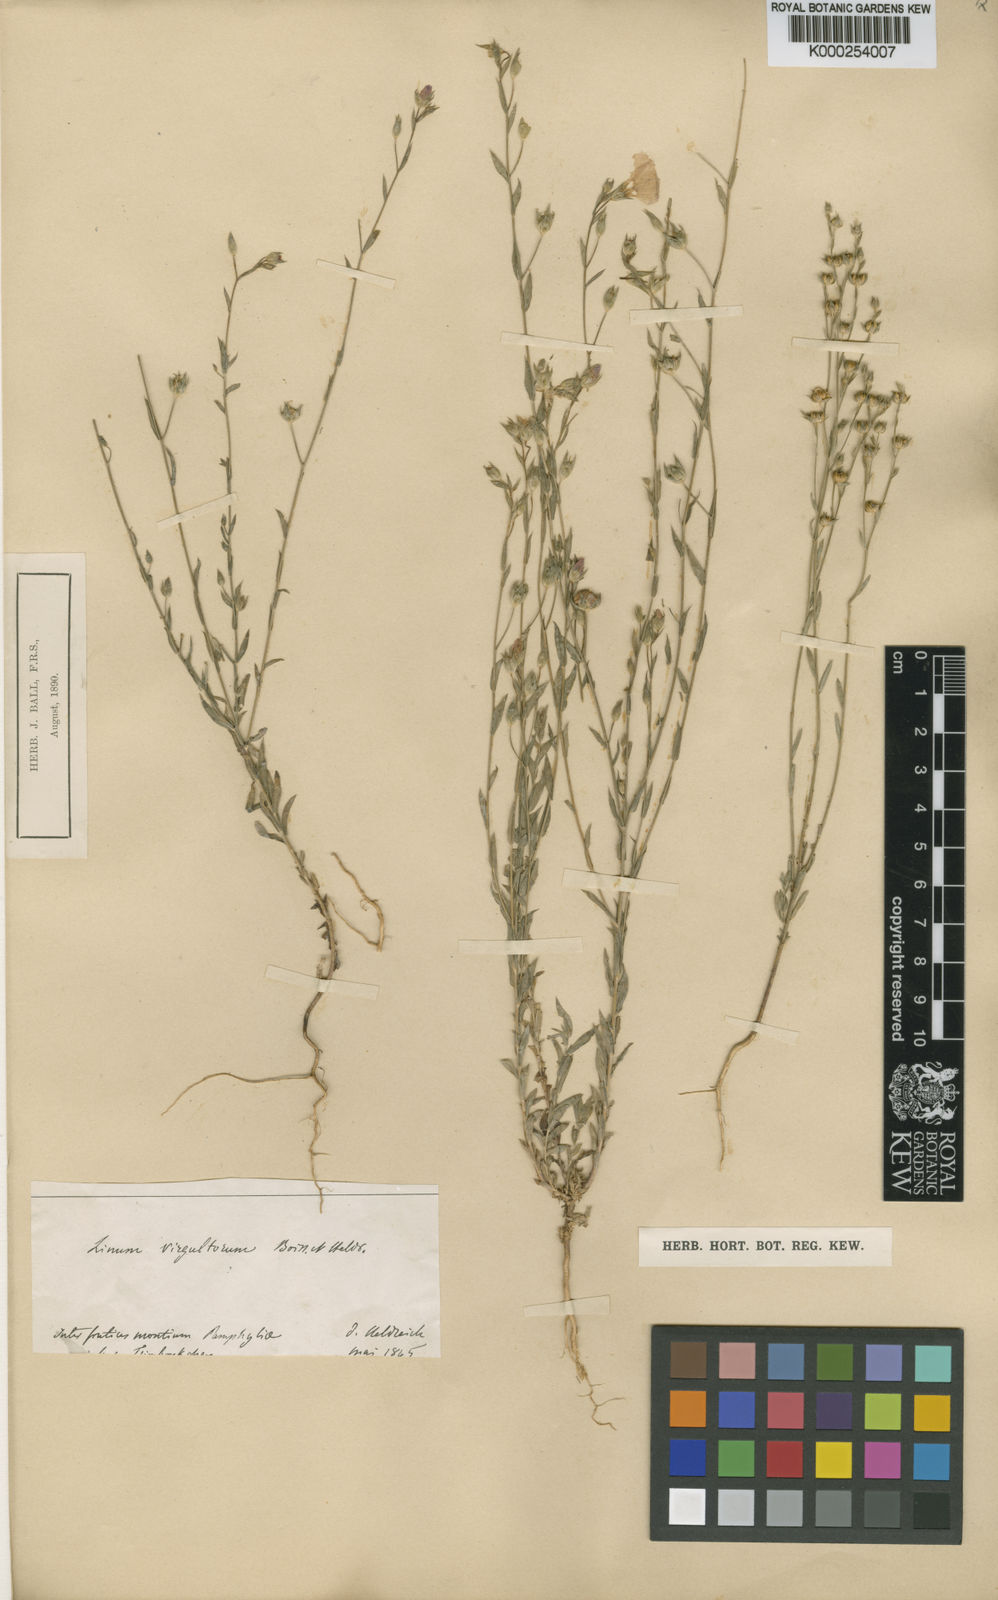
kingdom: Plantae
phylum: Tracheophyta
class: Magnoliopsida
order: Malpighiales
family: Linaceae
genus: Linum
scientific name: Linum virgultorum
